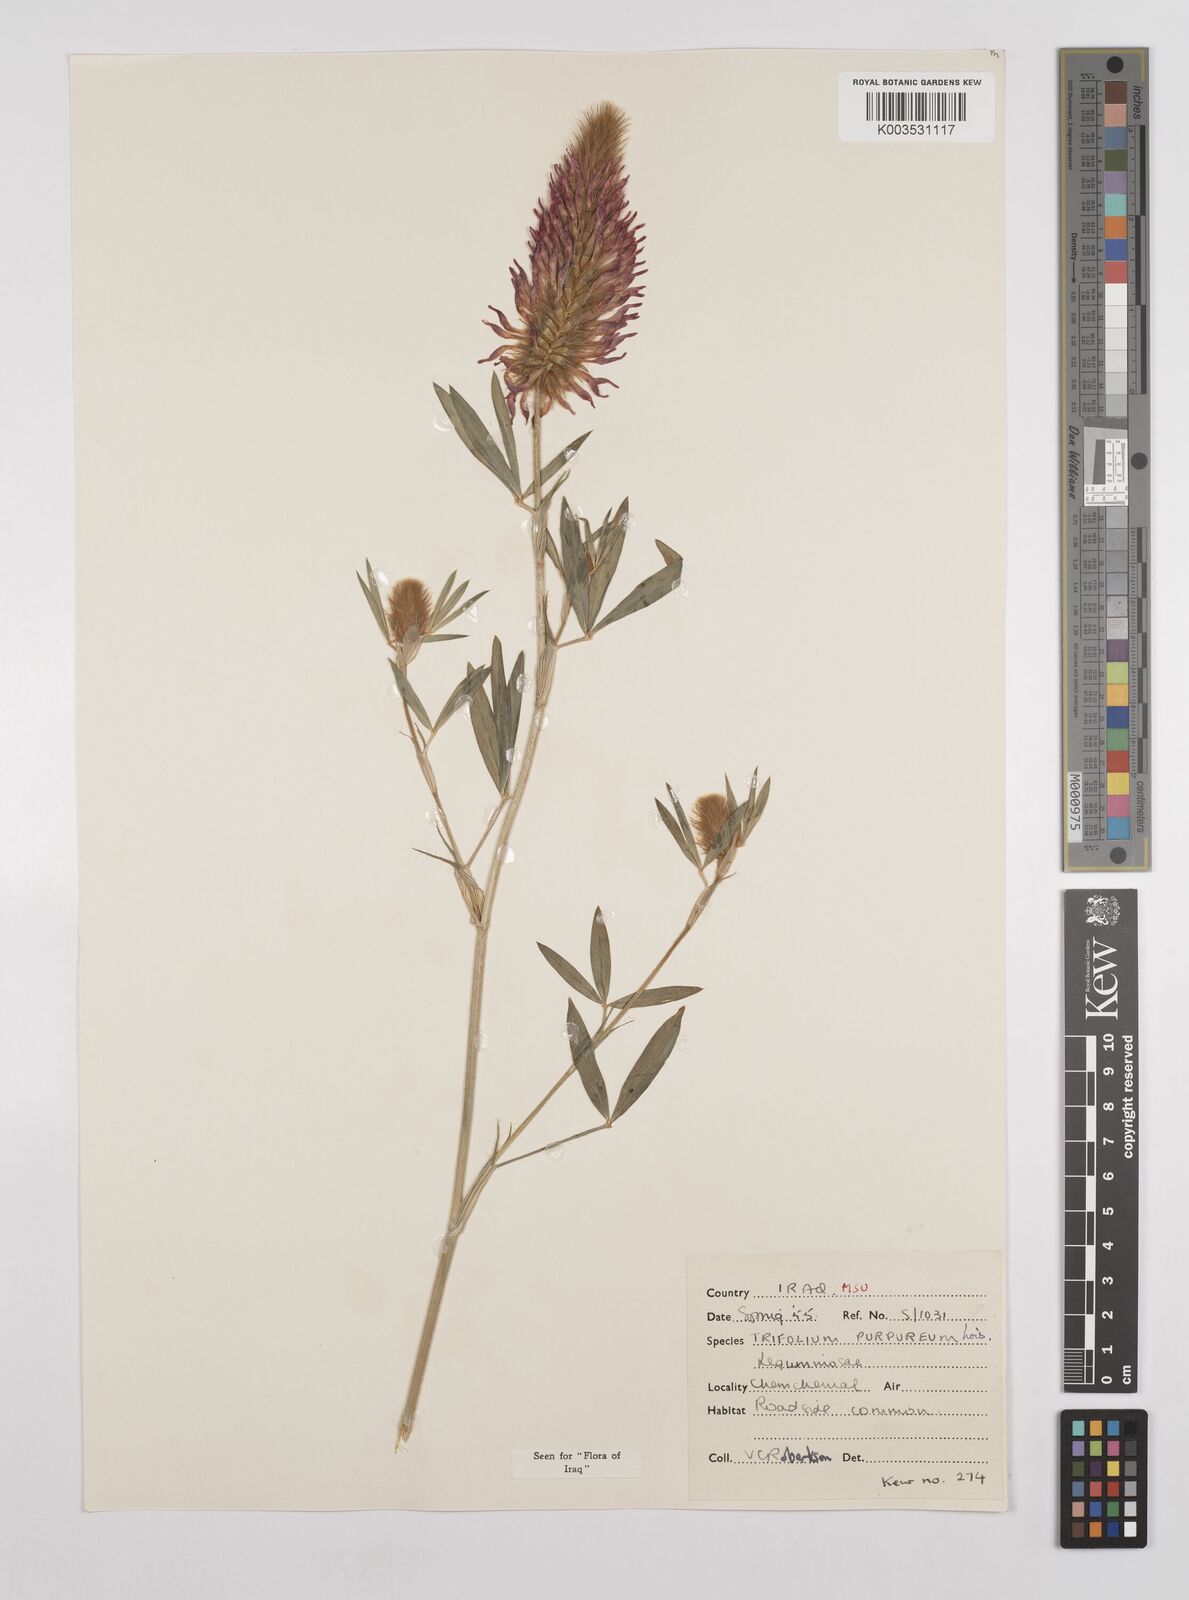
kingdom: Plantae
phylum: Tracheophyta
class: Magnoliopsida
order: Fabales
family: Fabaceae
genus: Trifolium
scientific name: Trifolium purpureum
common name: Purple clover
